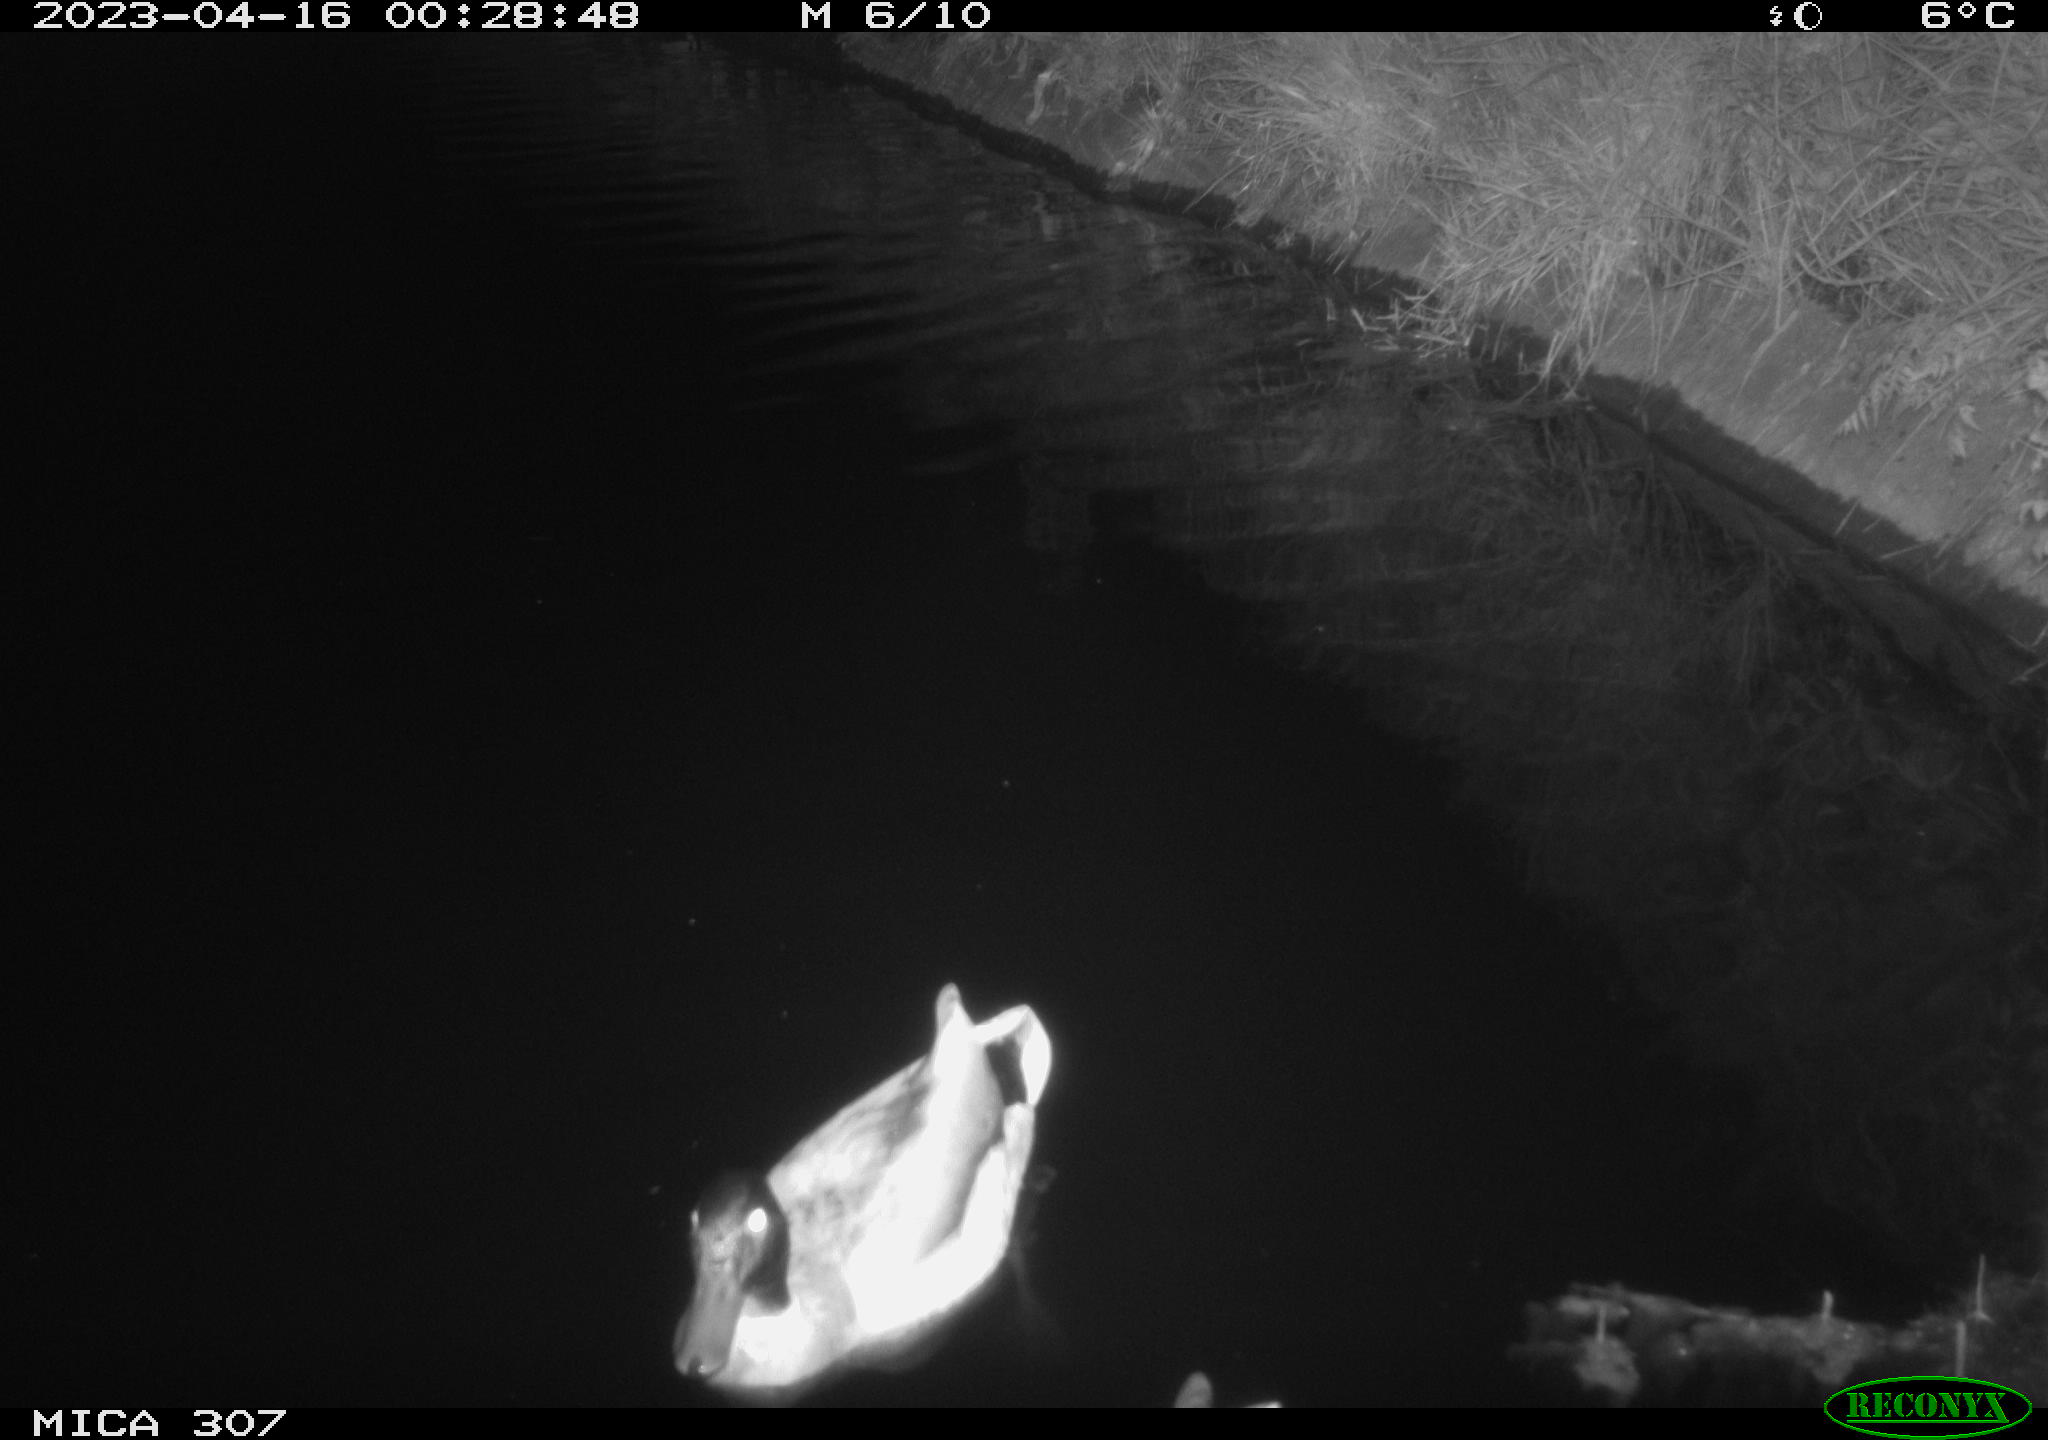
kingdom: Animalia
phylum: Chordata
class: Aves
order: Anseriformes
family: Anatidae
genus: Anas
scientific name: Anas
